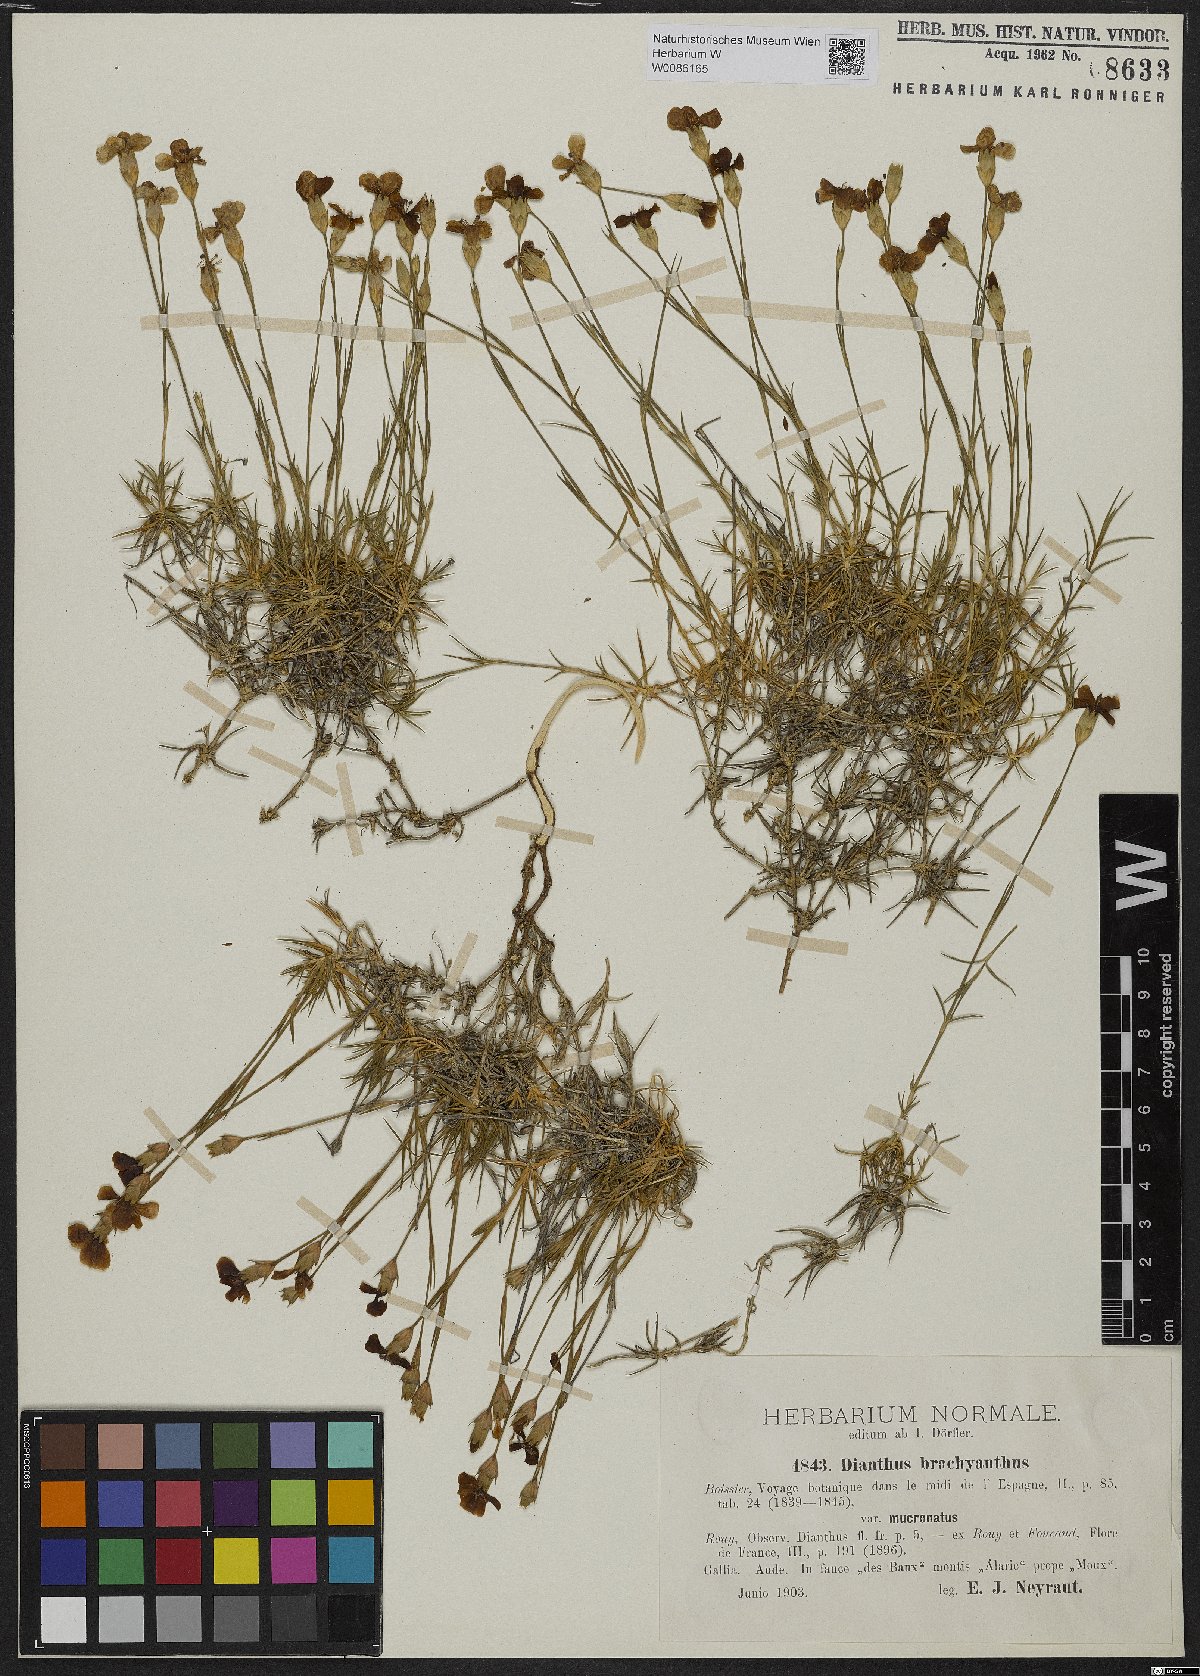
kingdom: Plantae
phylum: Tracheophyta
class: Magnoliopsida
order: Caryophyllales
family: Caryophyllaceae
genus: Dianthus
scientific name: Dianthus subacaulis
